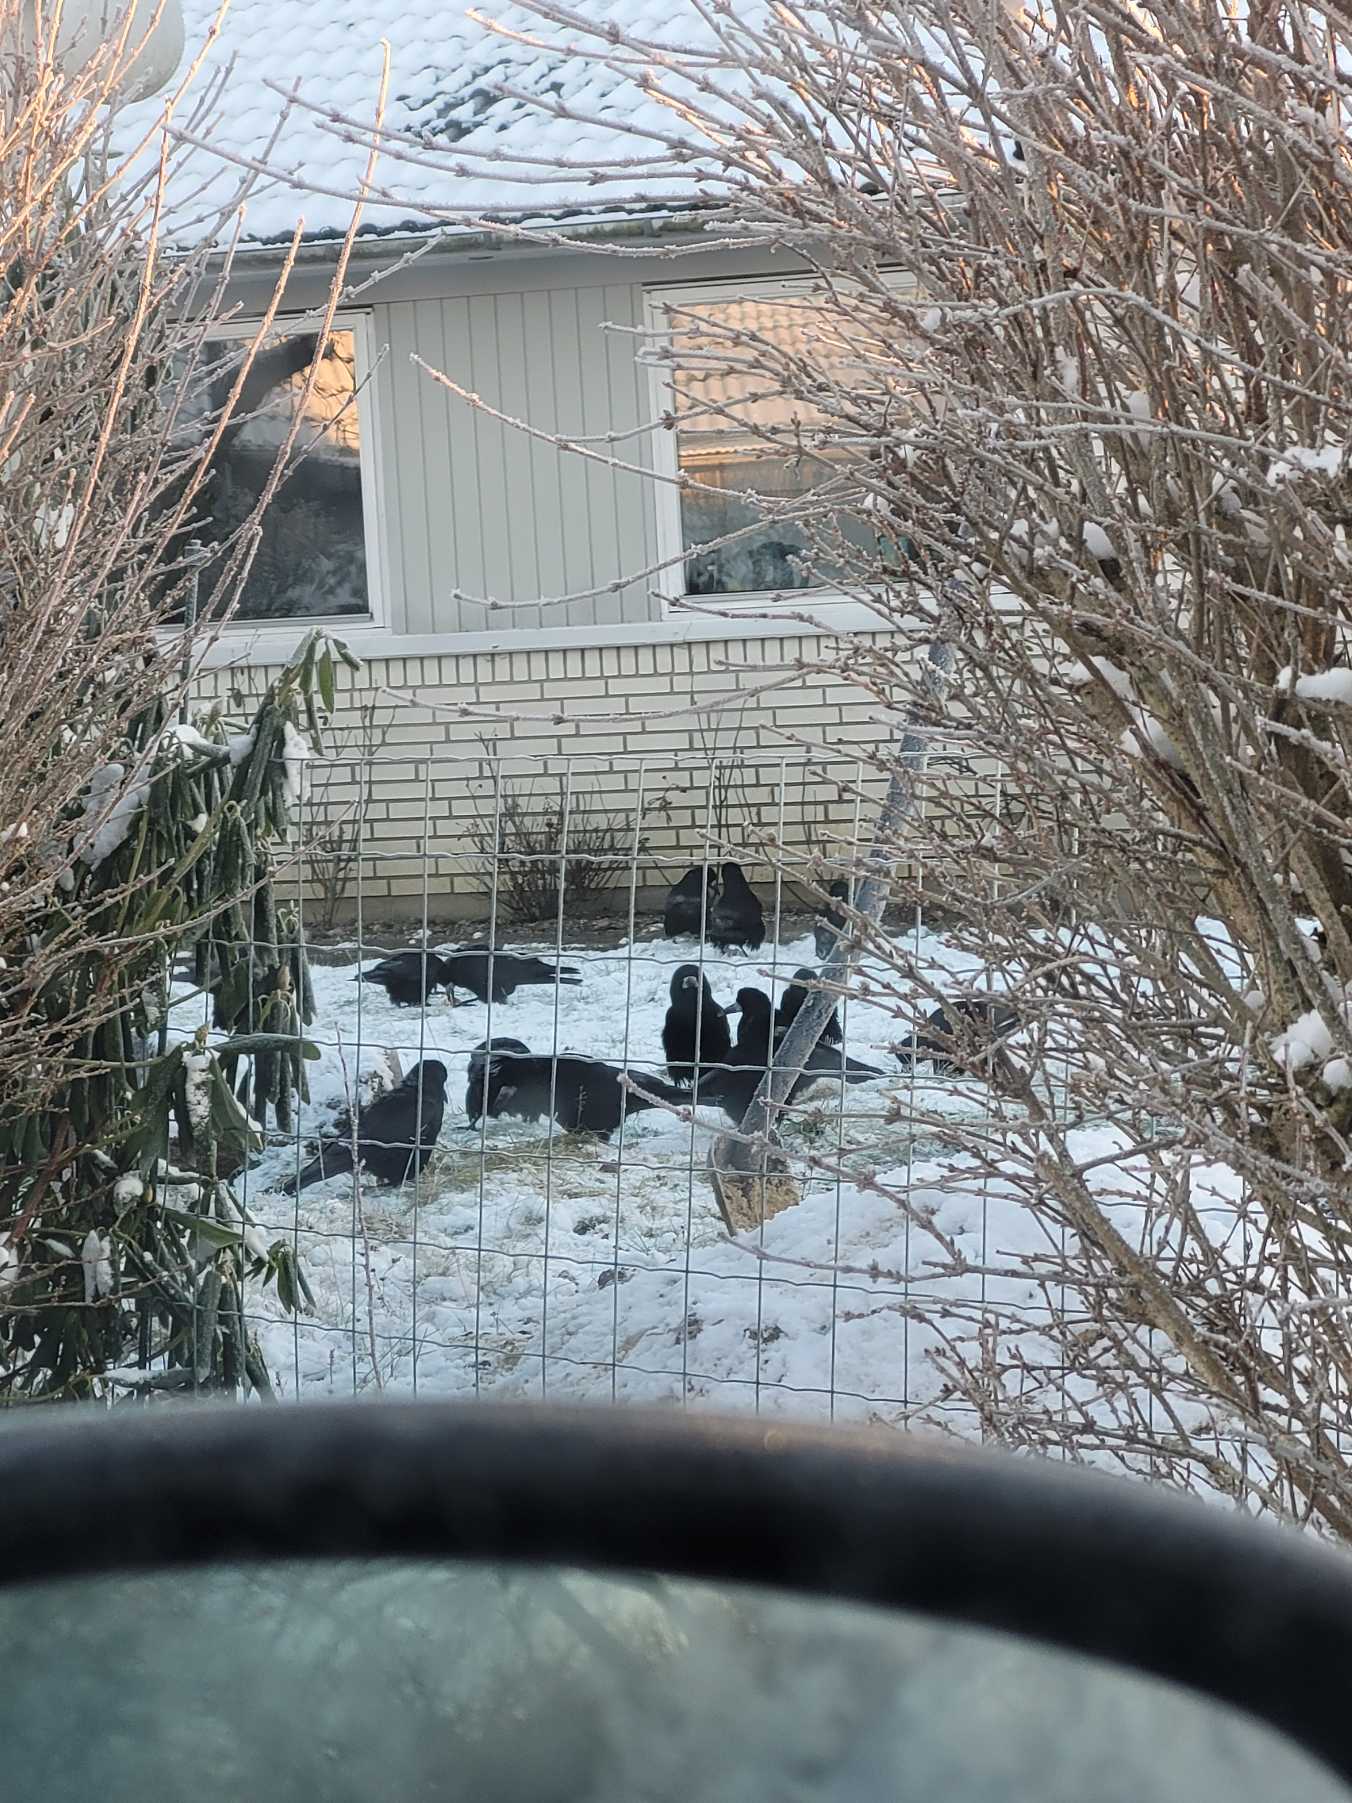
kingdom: Animalia
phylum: Chordata
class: Aves
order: Passeriformes
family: Corvidae
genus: Corvus
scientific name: Corvus frugilegus
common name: Råge
